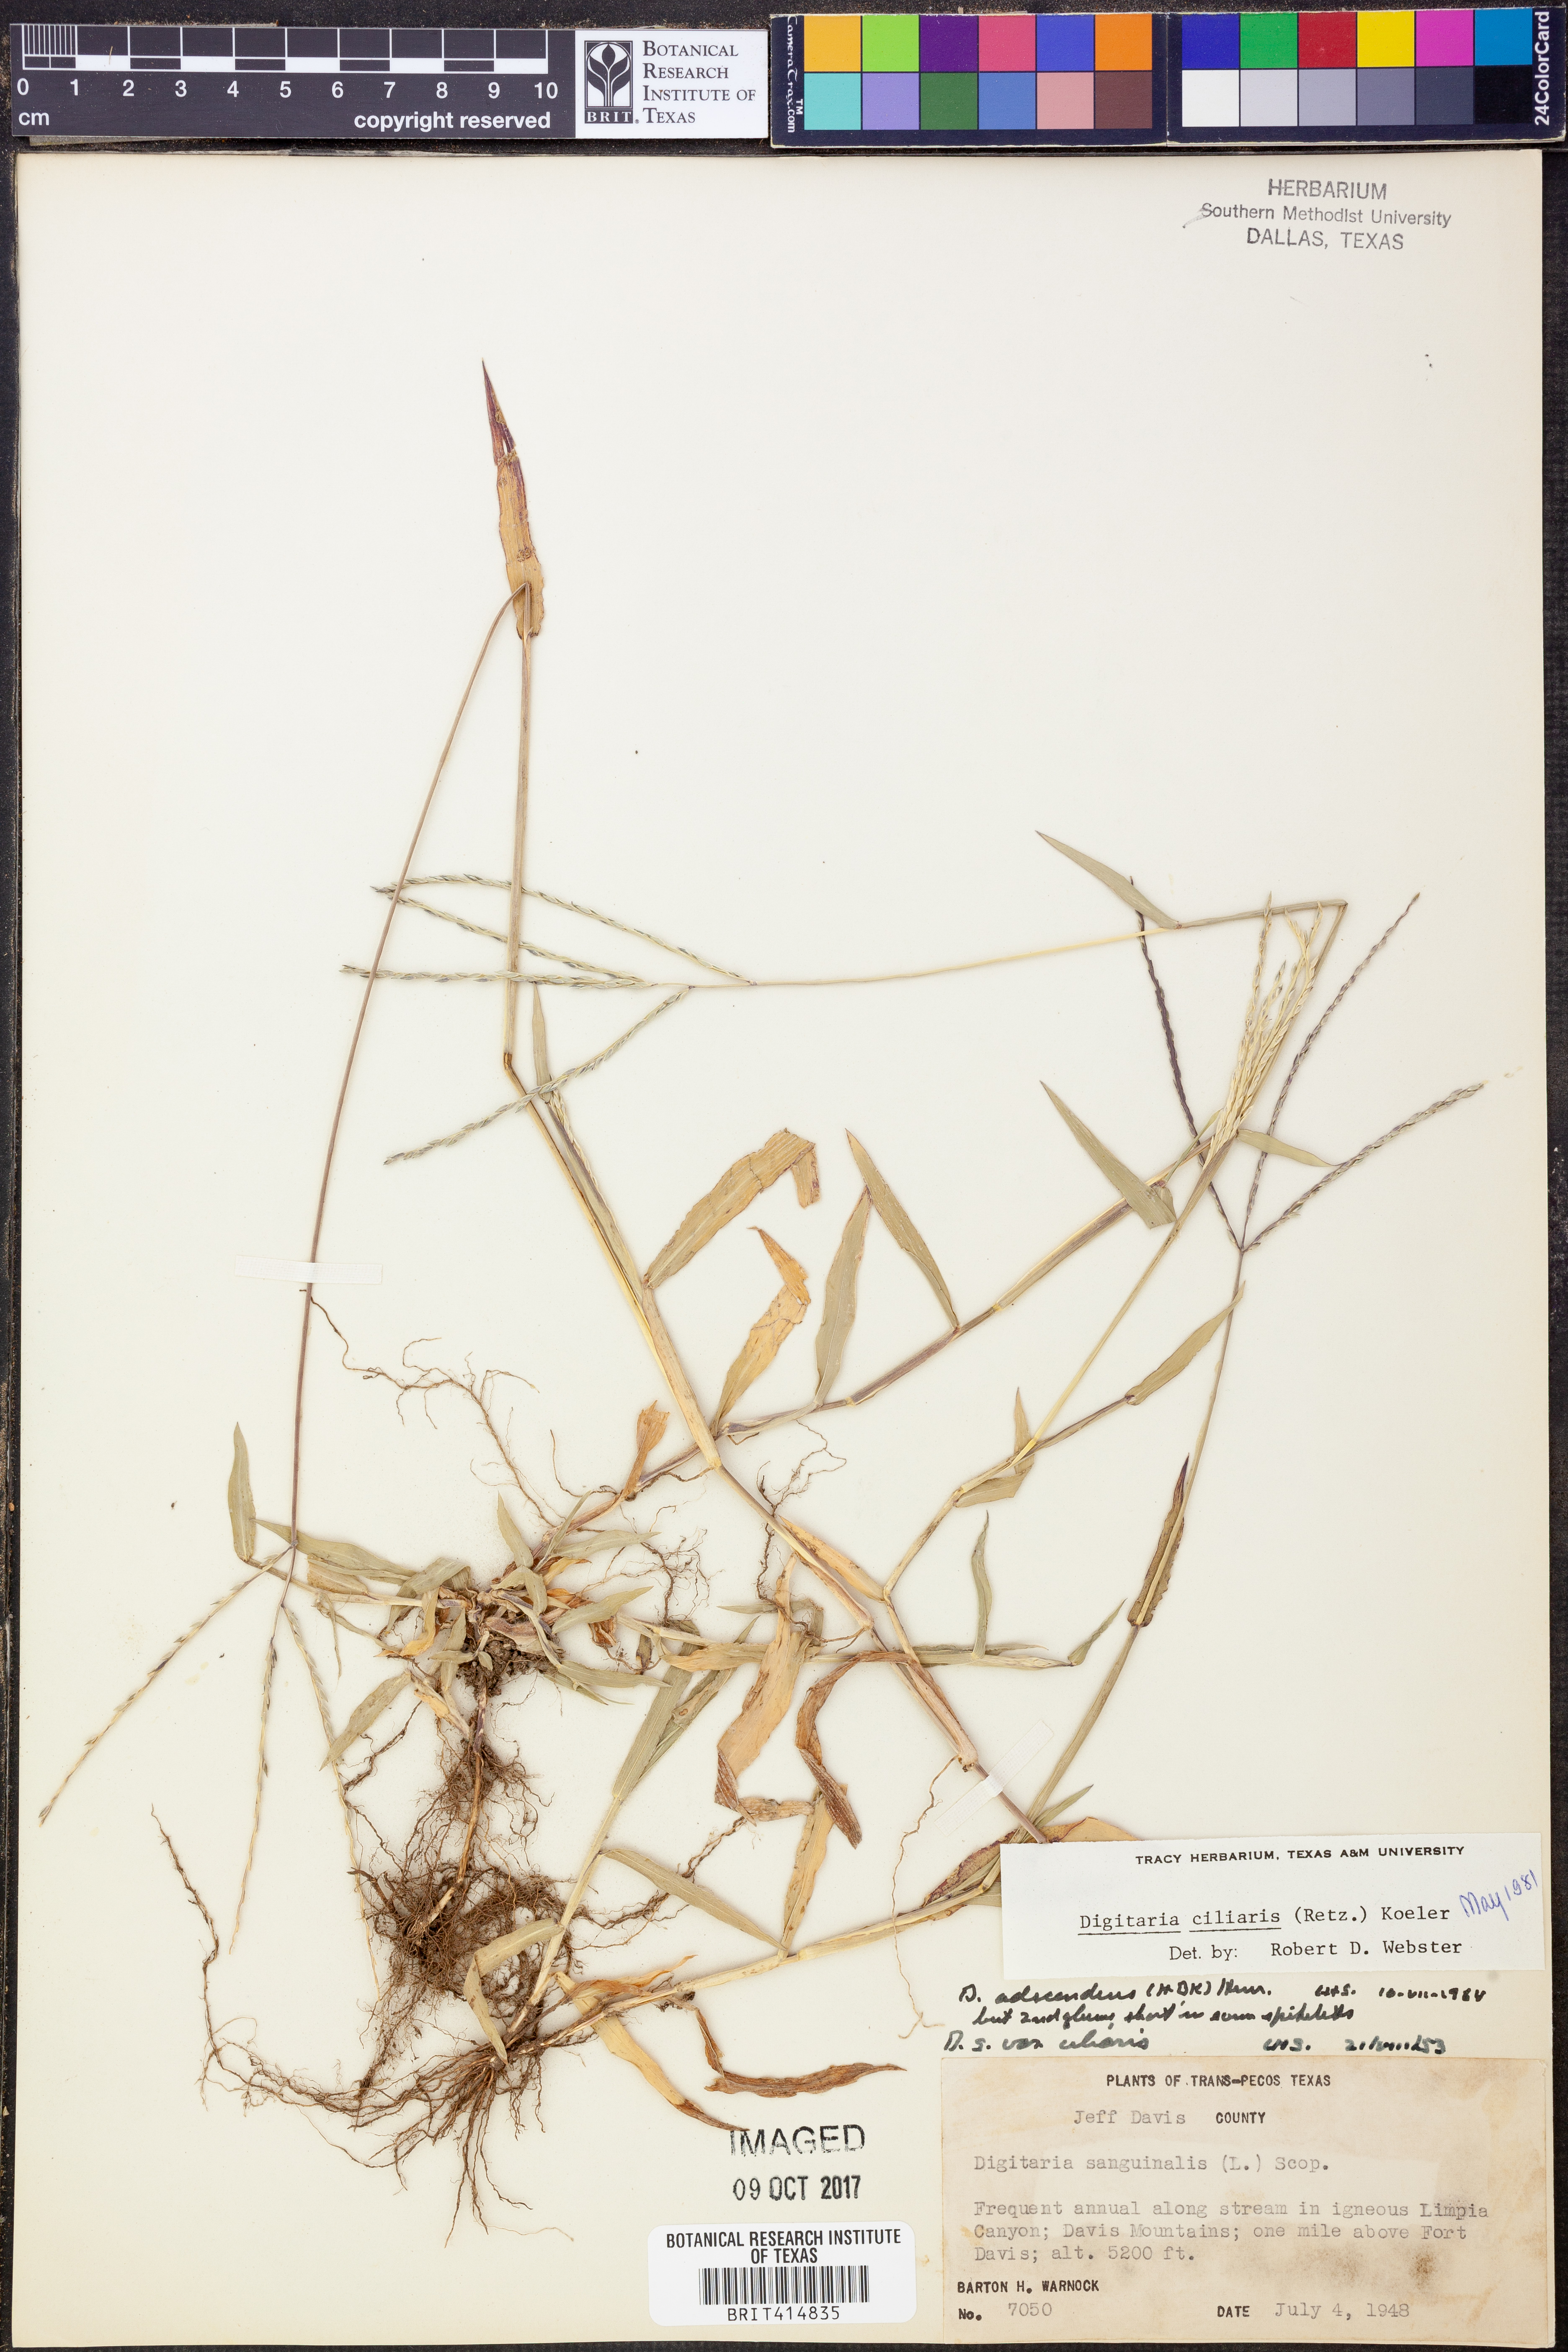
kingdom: Plantae
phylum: Tracheophyta
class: Liliopsida
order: Poales
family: Poaceae
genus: Digitaria
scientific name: Digitaria ciliaris
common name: Tropical finger-grass
